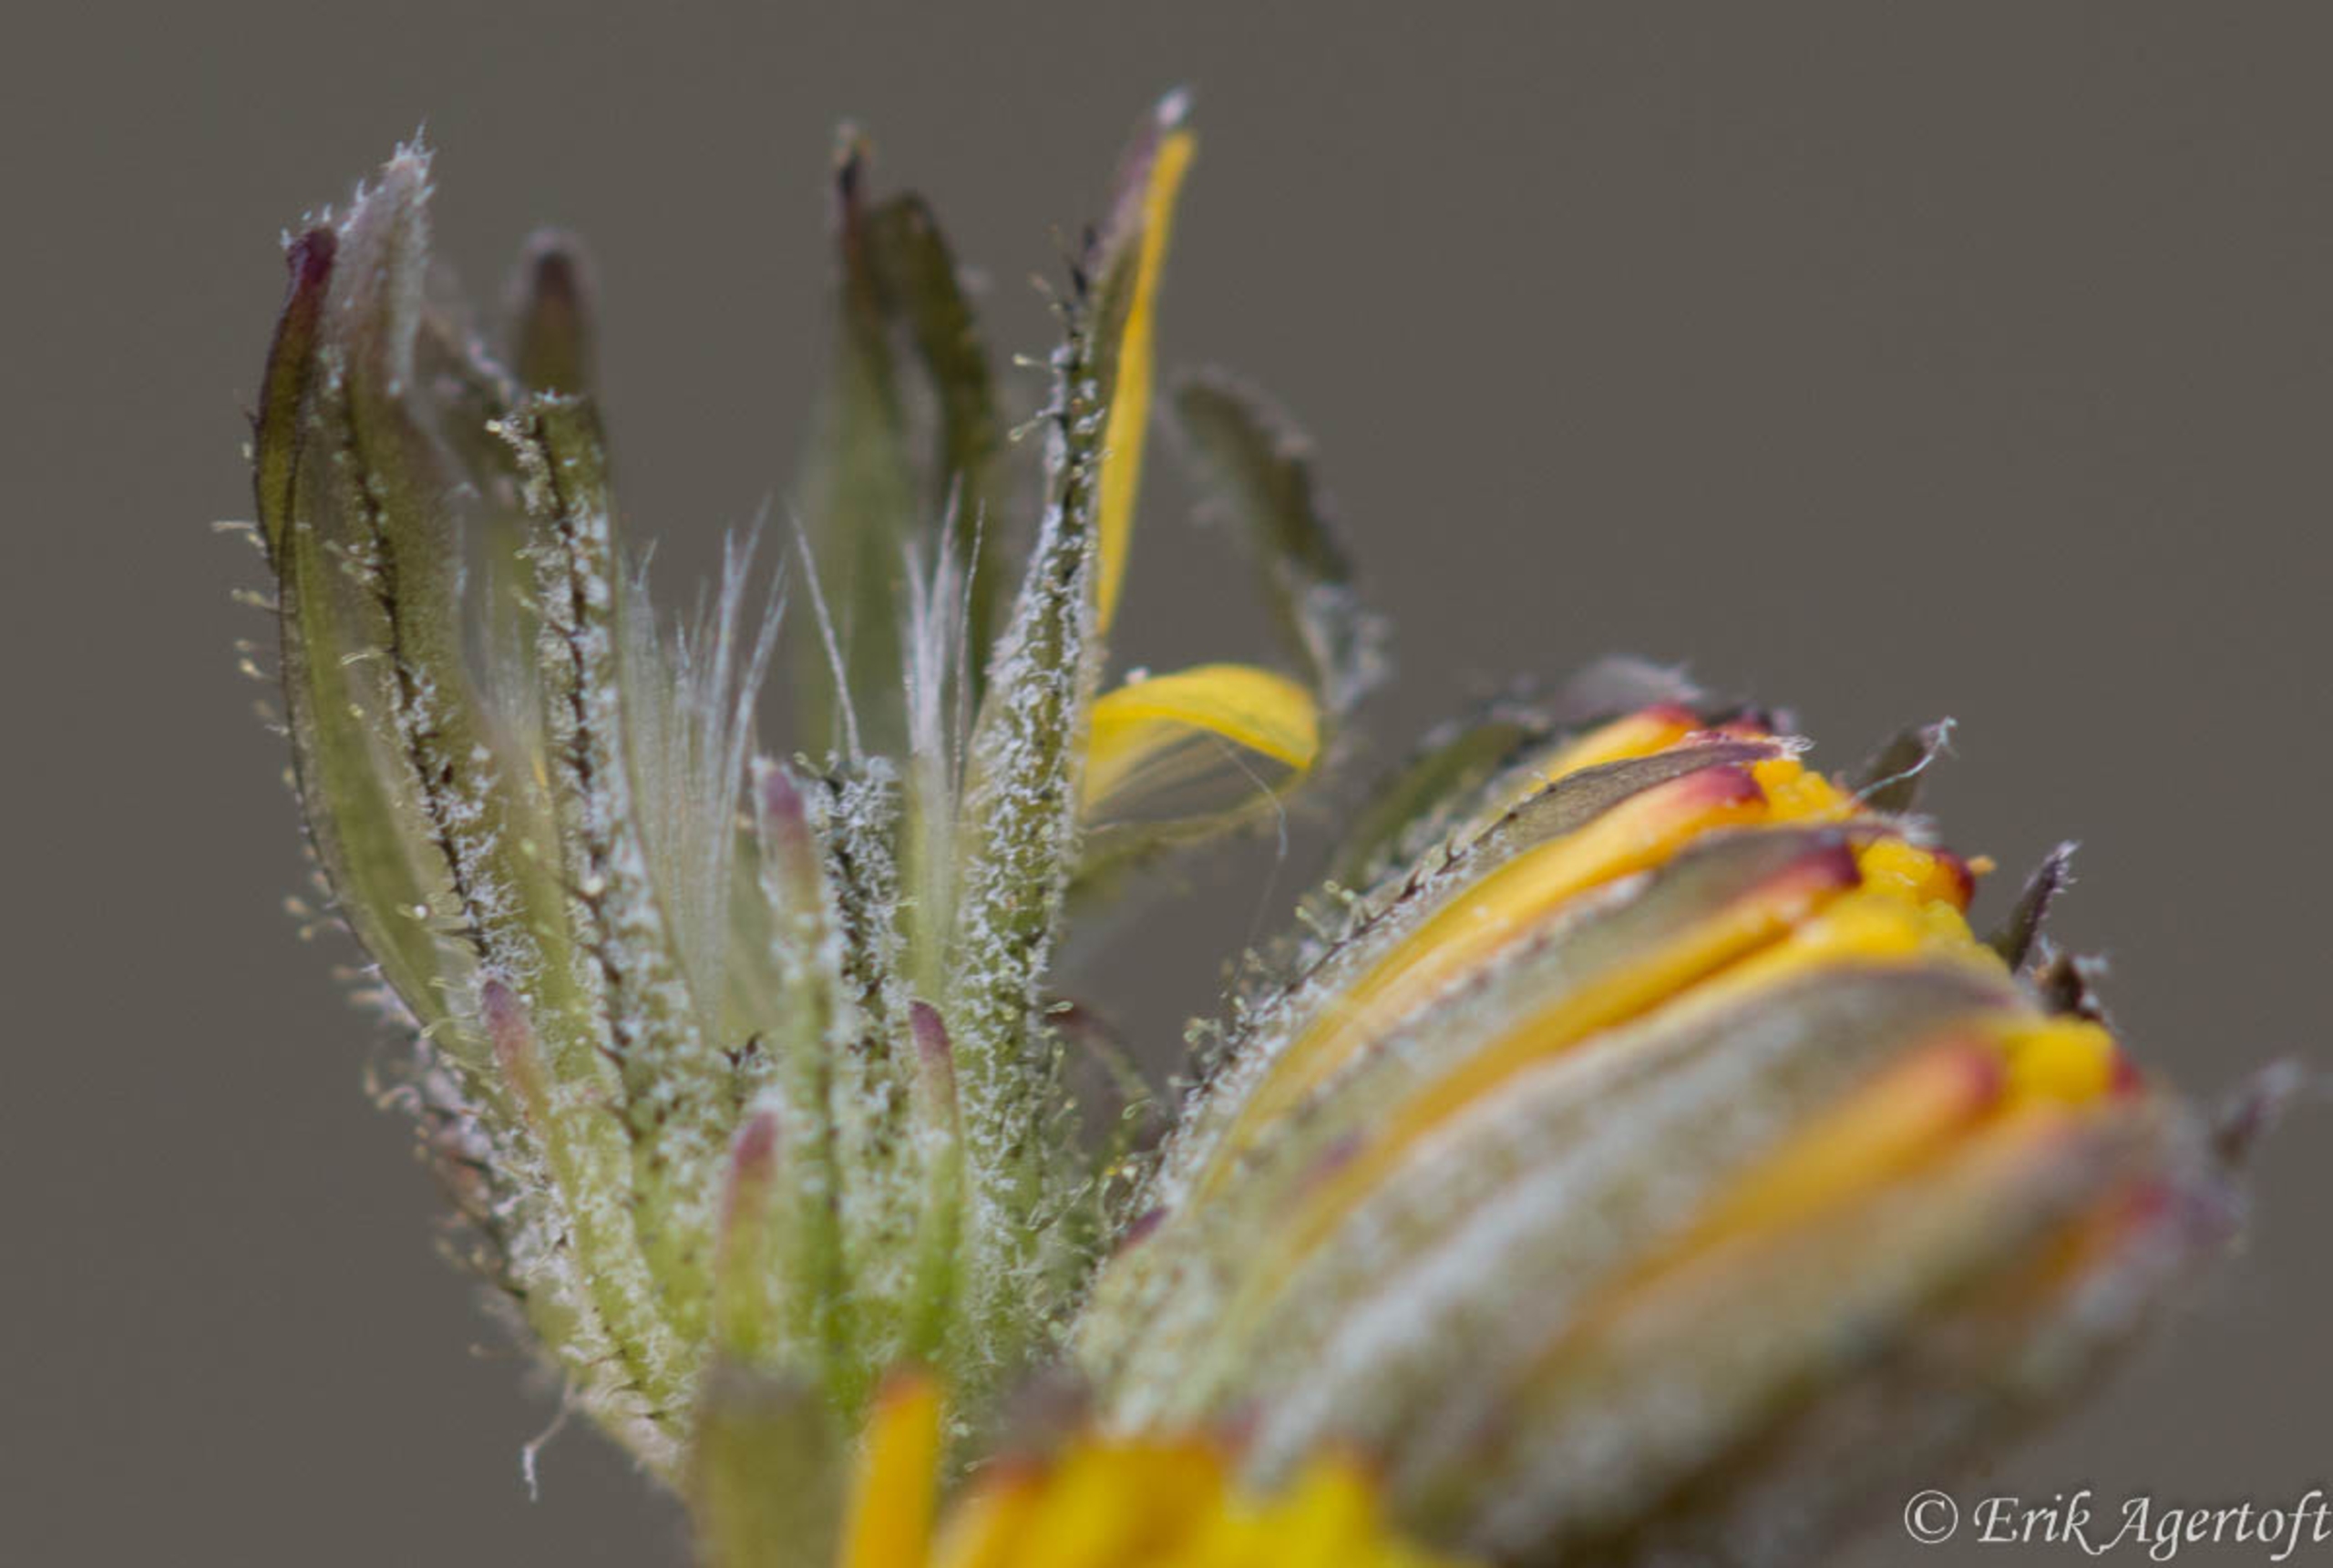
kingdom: Plantae
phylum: Tracheophyta
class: Magnoliopsida
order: Asterales
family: Asteraceae
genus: Crepis
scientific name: Crepis capillaris
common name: Grøn høgeskæg
